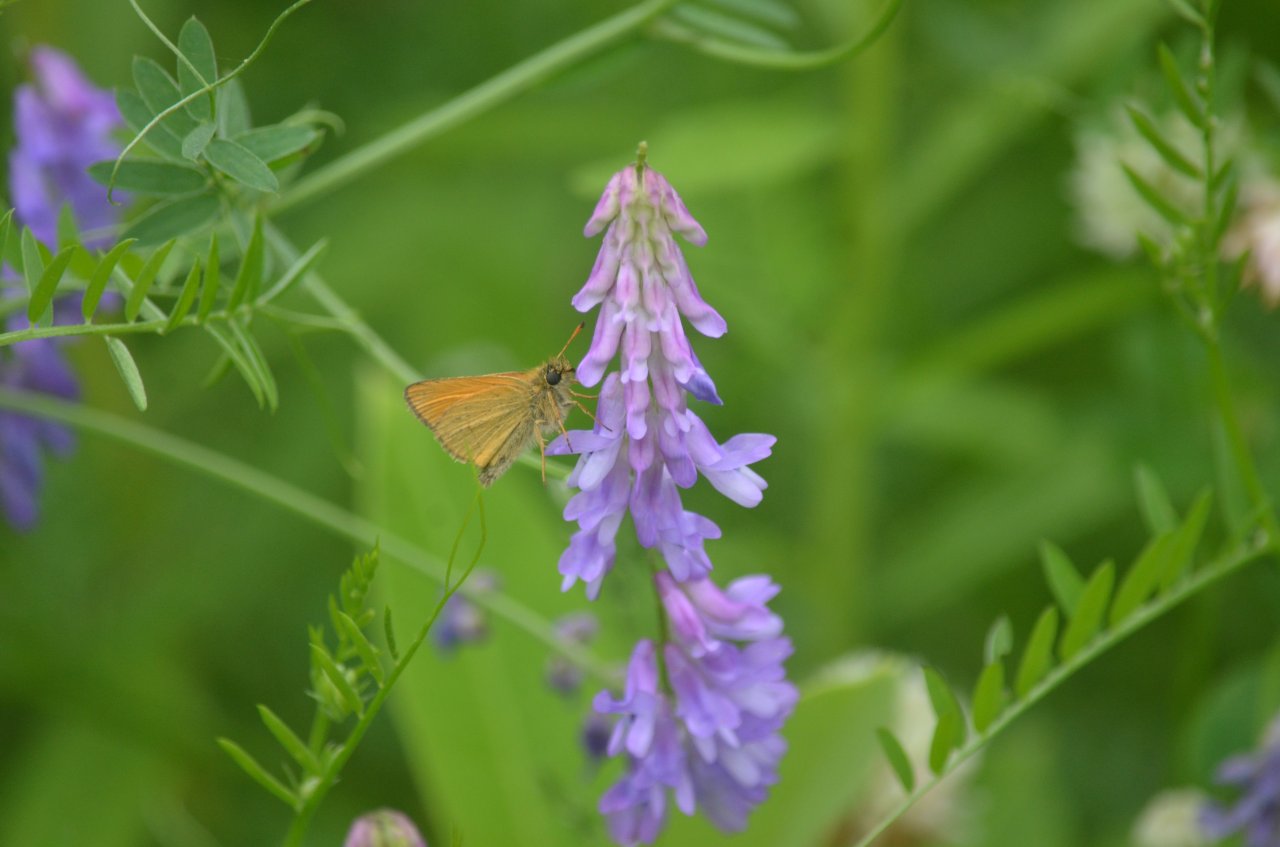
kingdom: Animalia
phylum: Arthropoda
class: Insecta
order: Lepidoptera
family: Hesperiidae
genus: Atrytone
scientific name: Atrytone delaware
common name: Delaware Skipper
